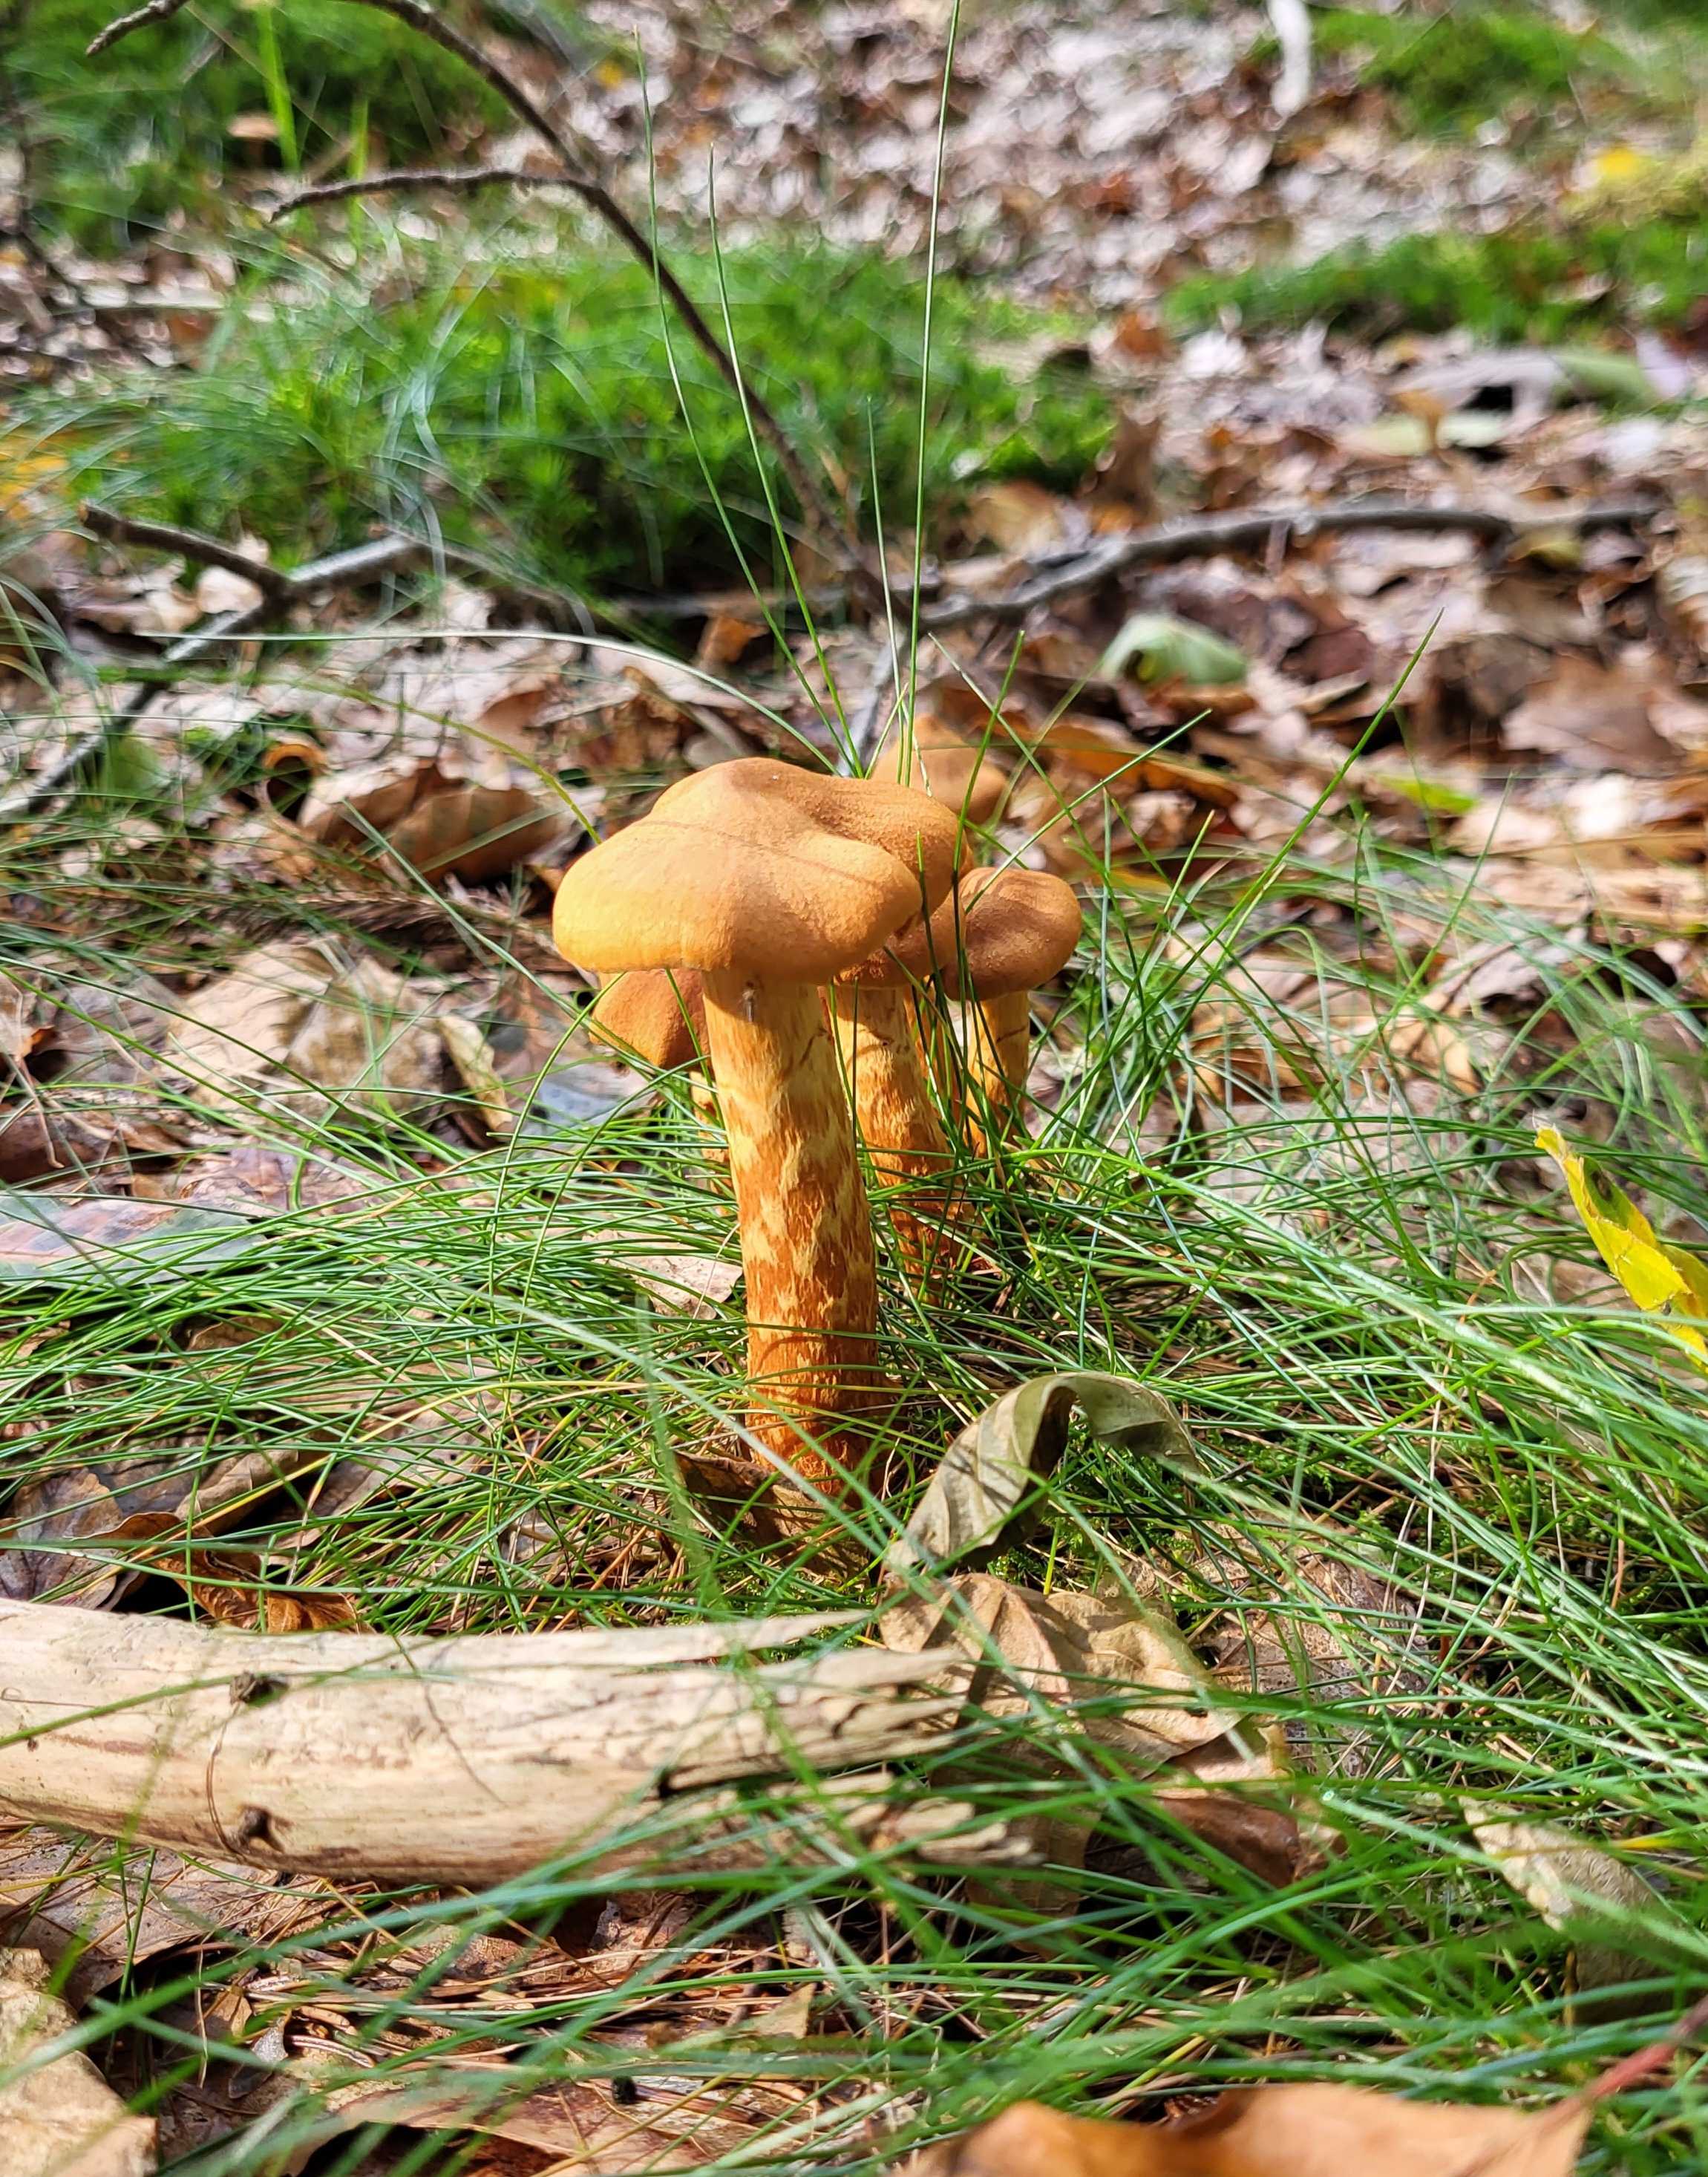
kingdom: Fungi
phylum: Basidiomycota
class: Agaricomycetes
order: Agaricales
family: Cortinariaceae
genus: Cortinarius
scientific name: Cortinarius rubellus
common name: puklet gift-slørhat
